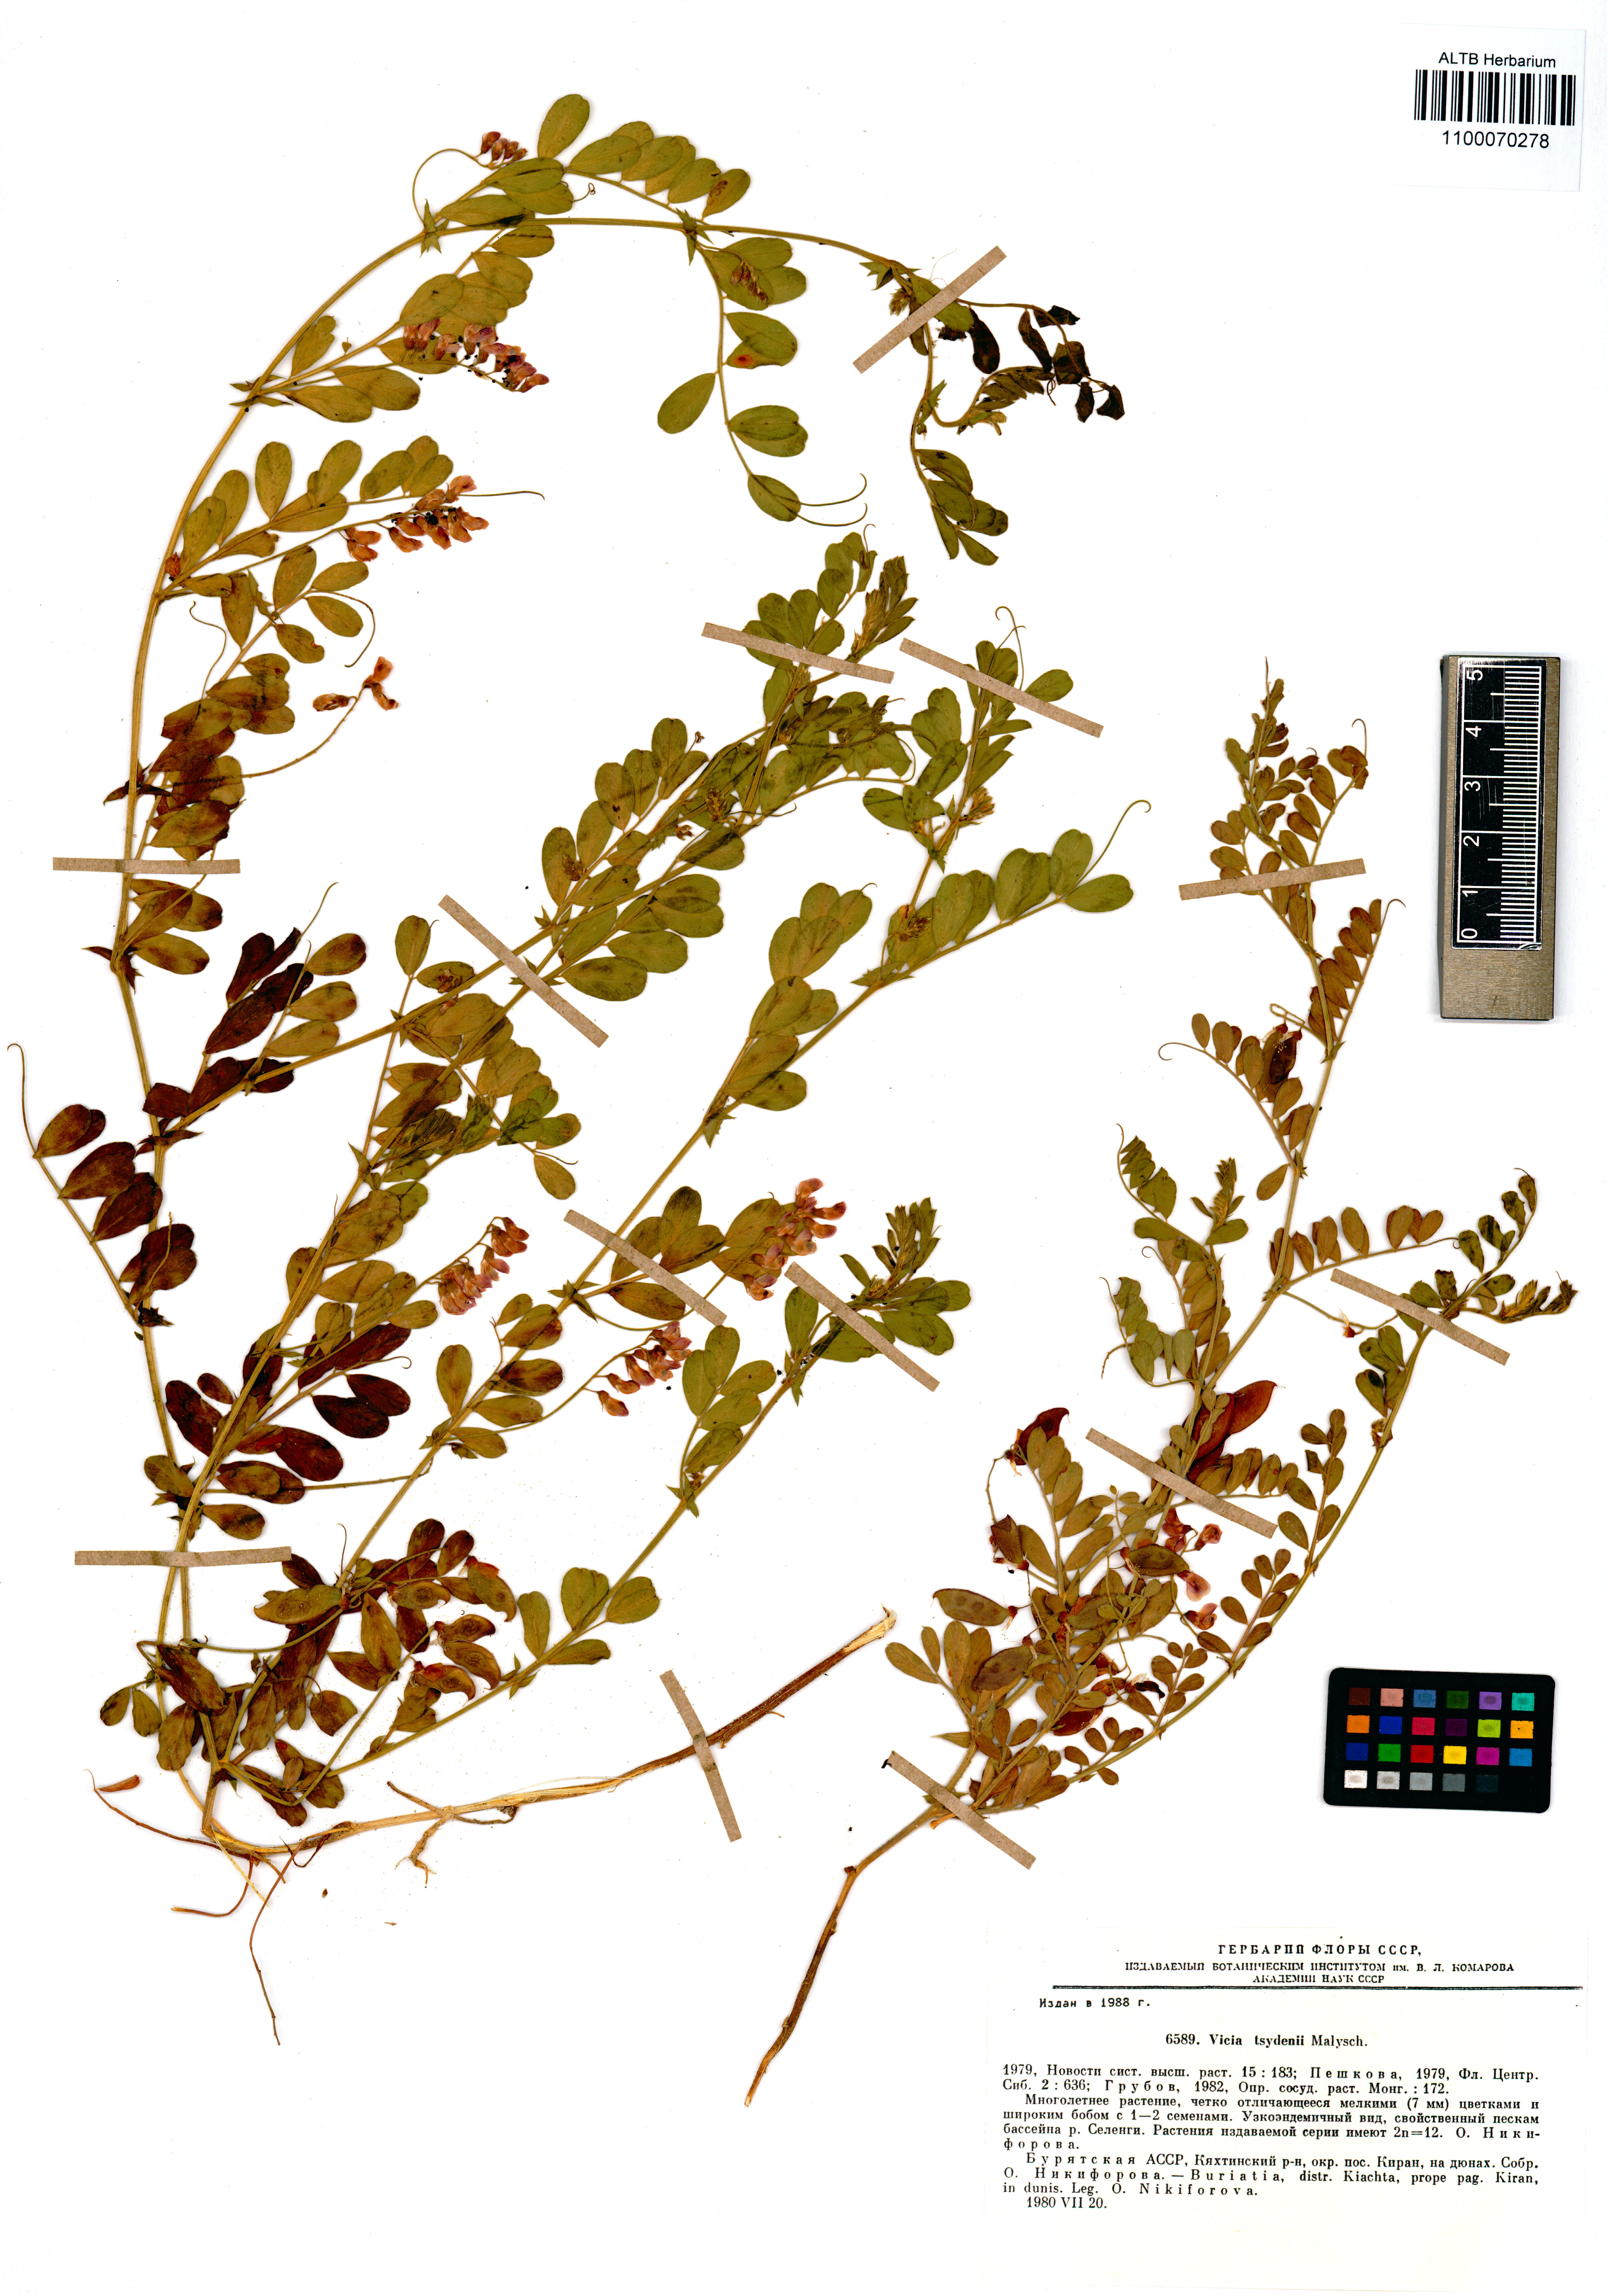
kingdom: Plantae
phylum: Tracheophyta
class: Magnoliopsida
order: Fabales
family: Fabaceae
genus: Vicia
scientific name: Vicia tsydenii
